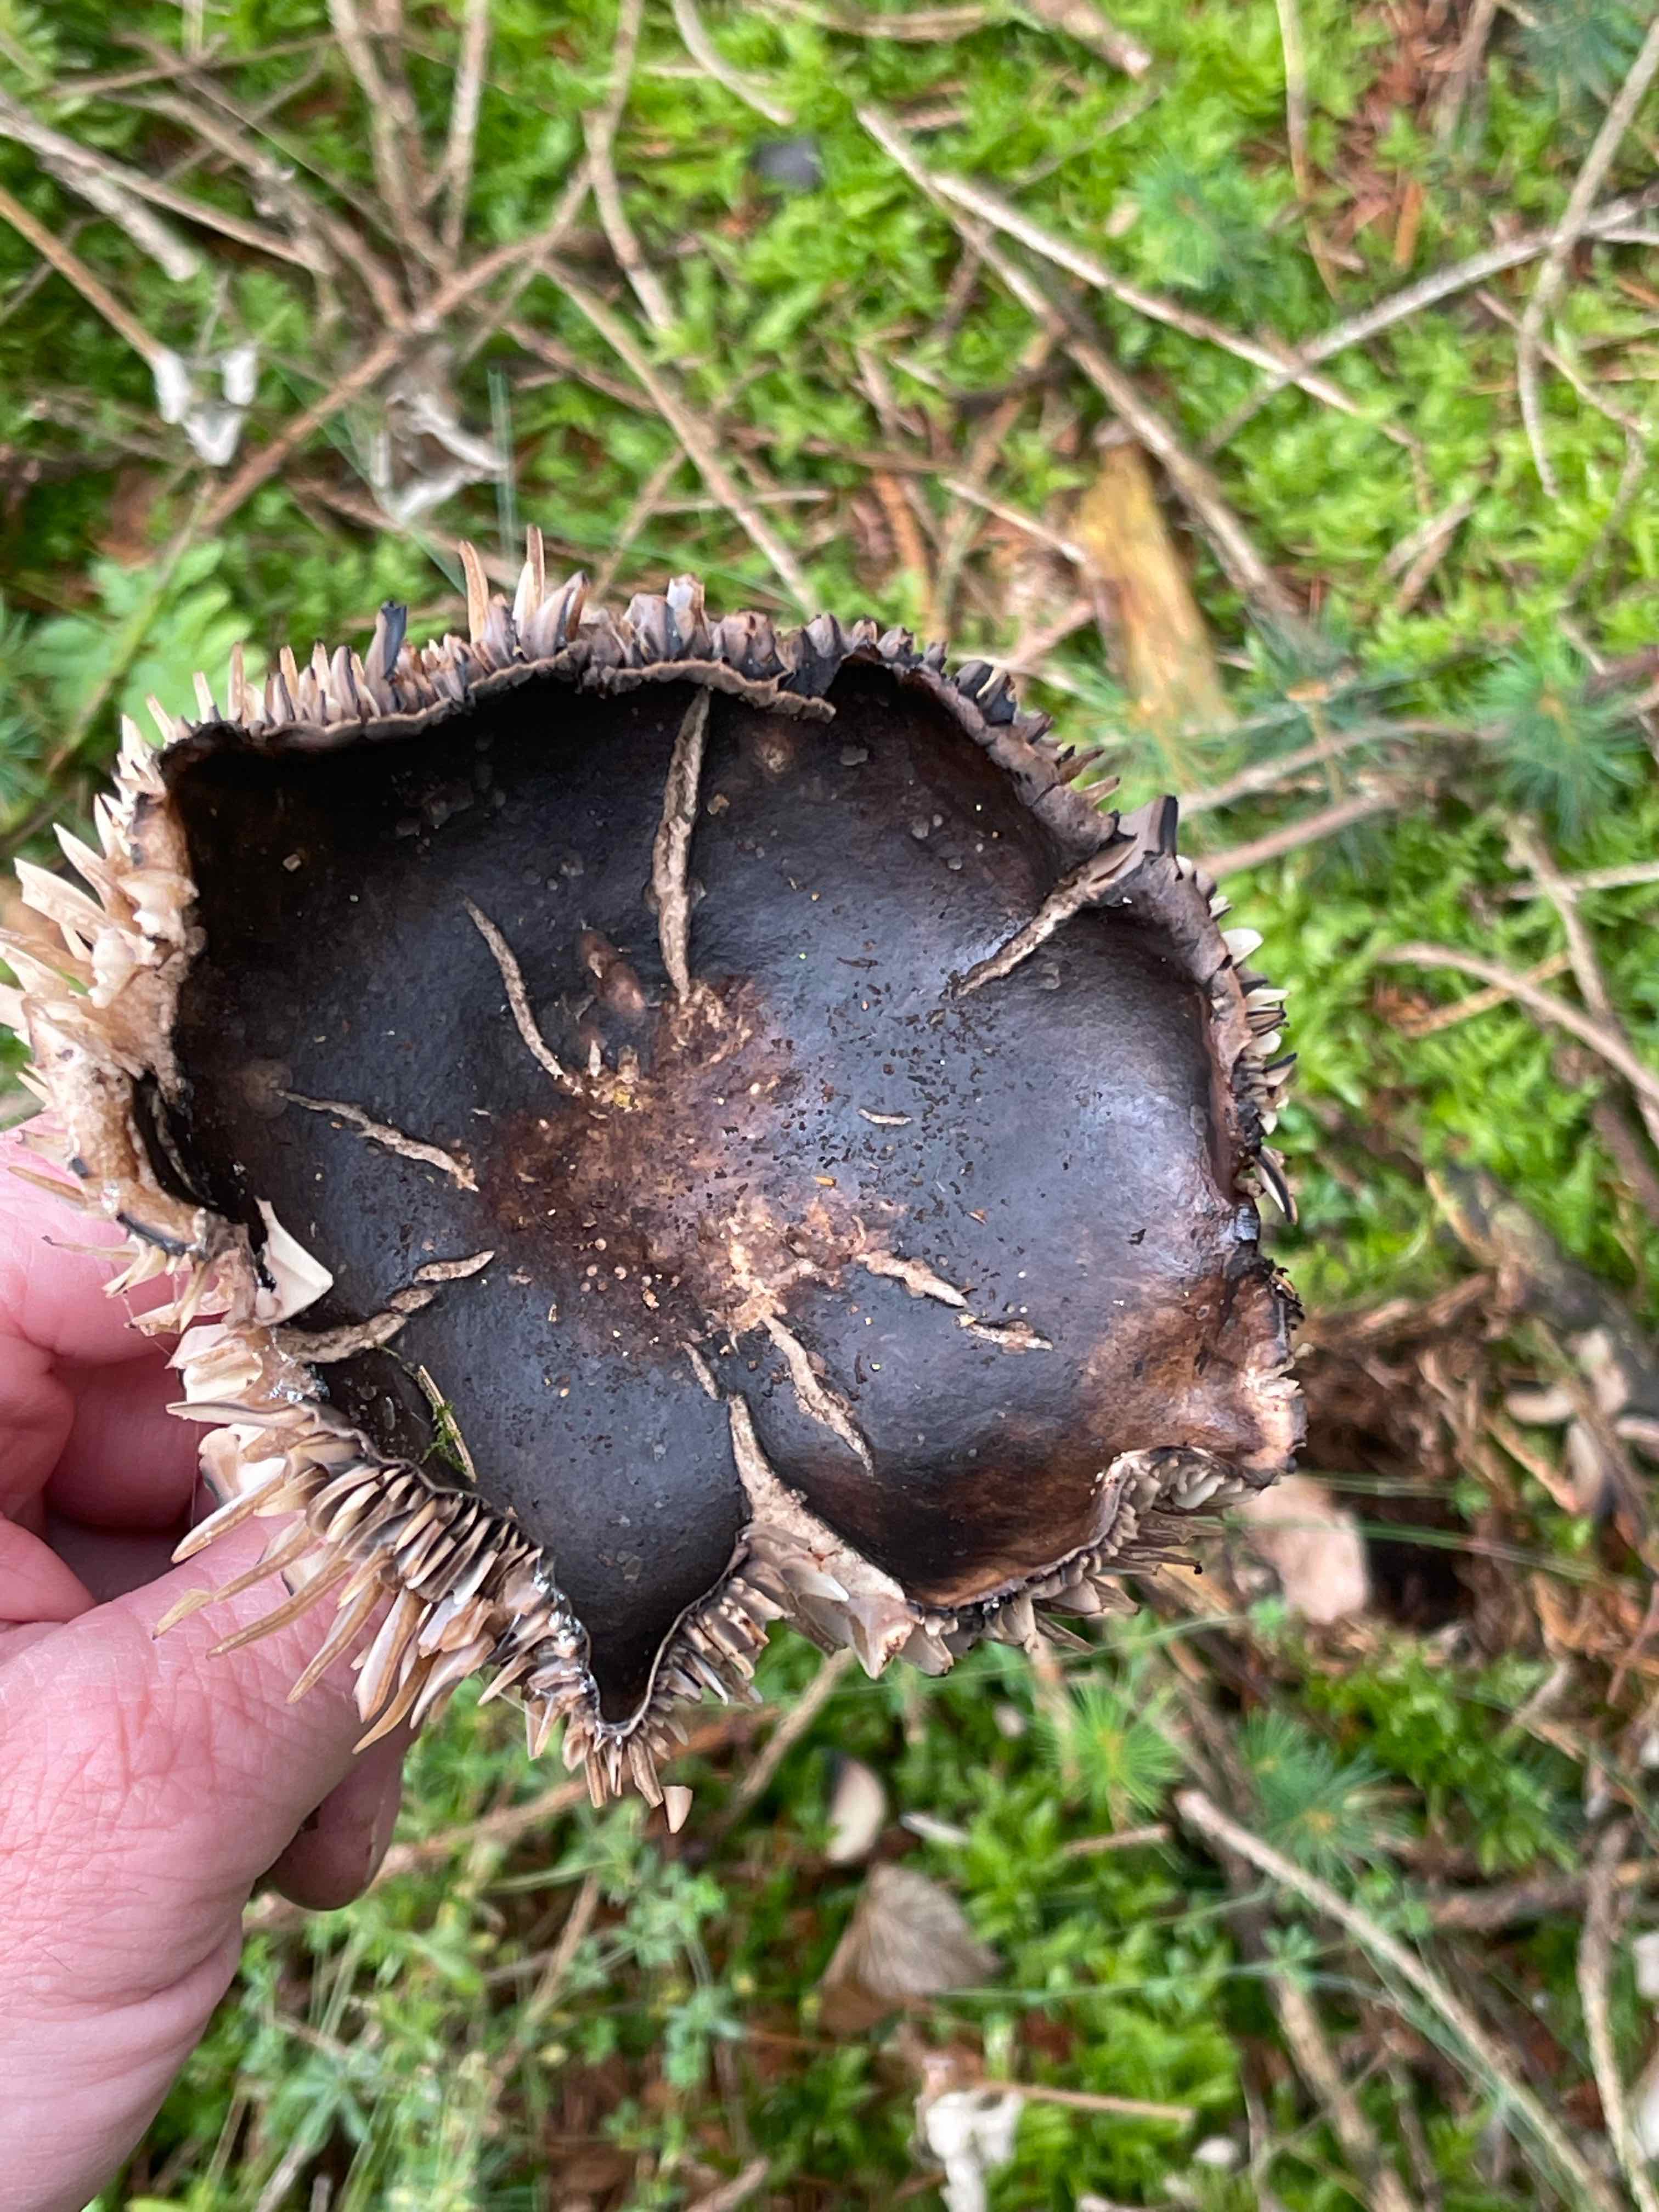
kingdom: Fungi
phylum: Basidiomycota
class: Agaricomycetes
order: Russulales
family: Russulaceae
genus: Russula
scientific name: Russula adusta
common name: sværtende skørhat
